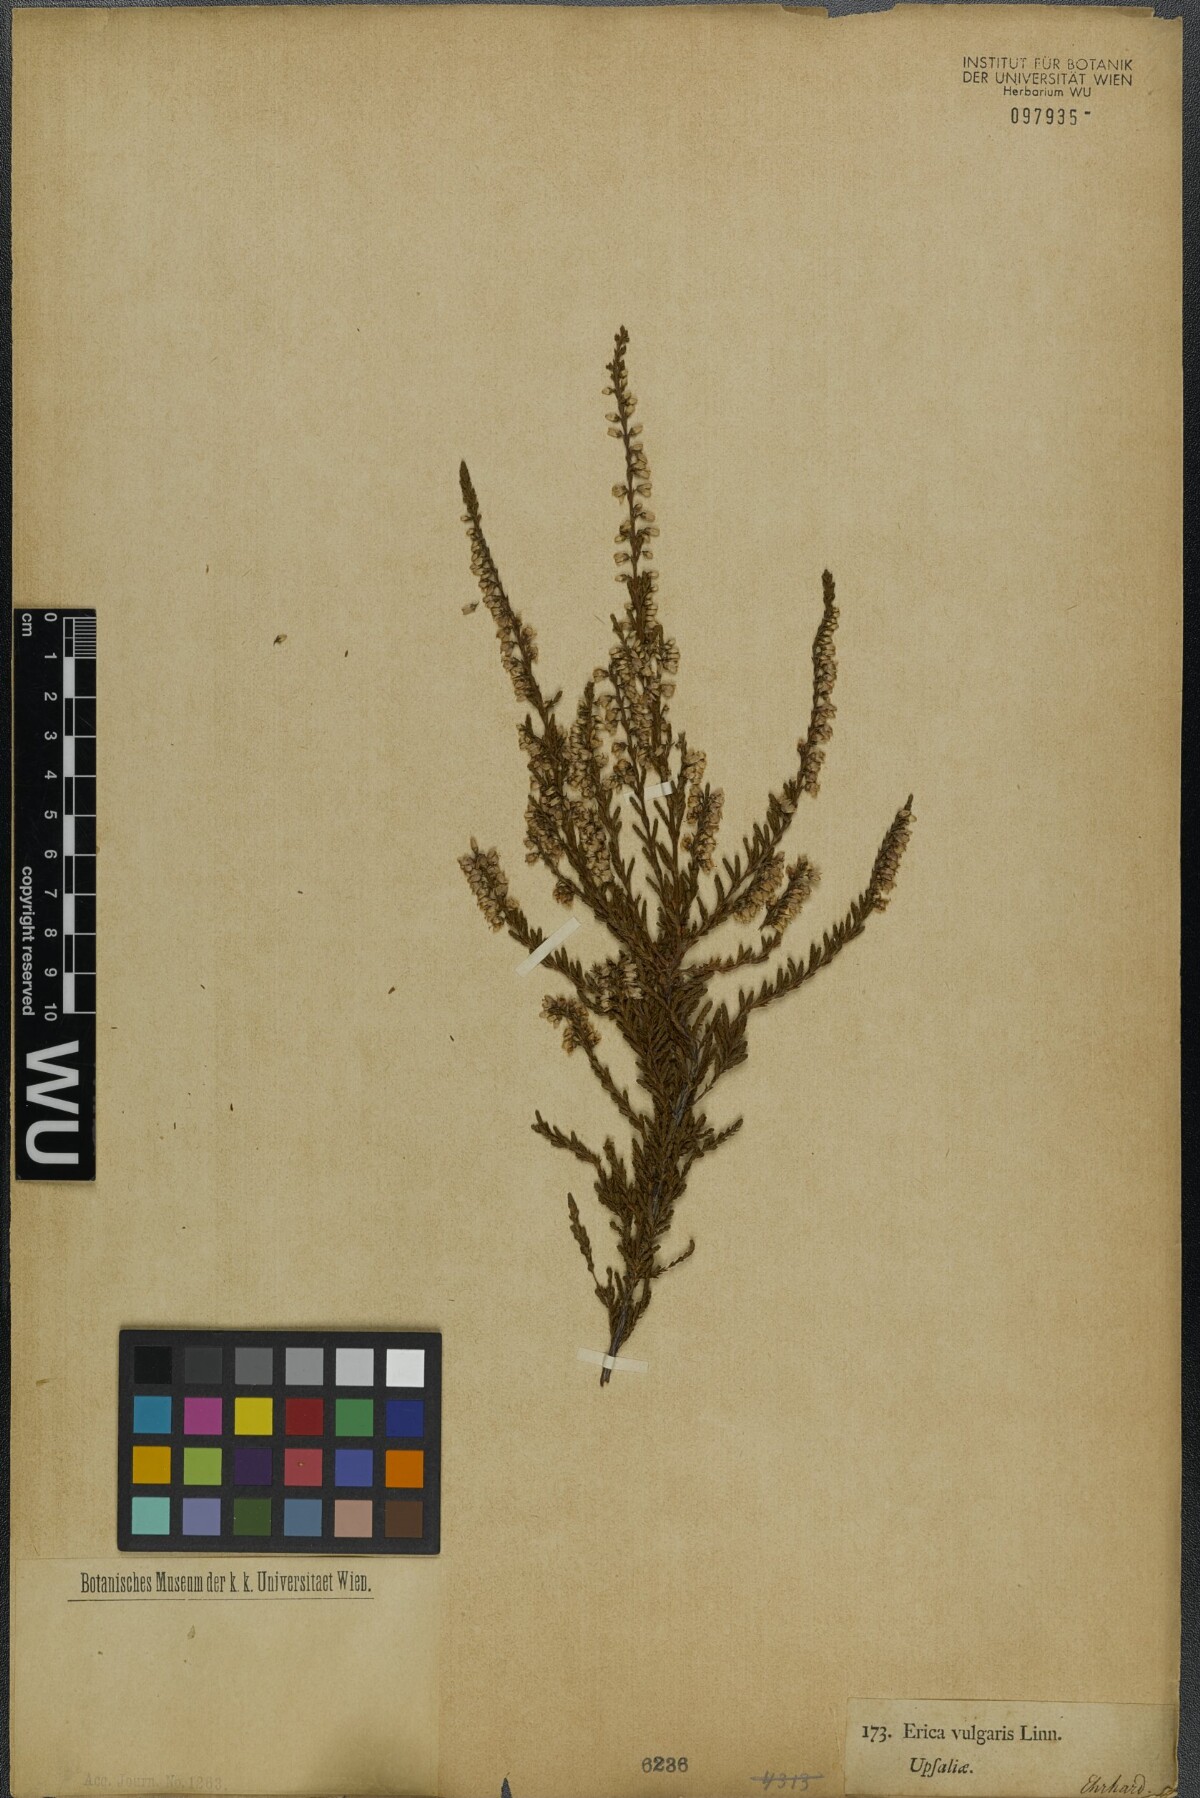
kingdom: Plantae
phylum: Tracheophyta
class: Magnoliopsida
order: Ericales
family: Ericaceae
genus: Calluna
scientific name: Calluna vulgaris
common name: Heather
